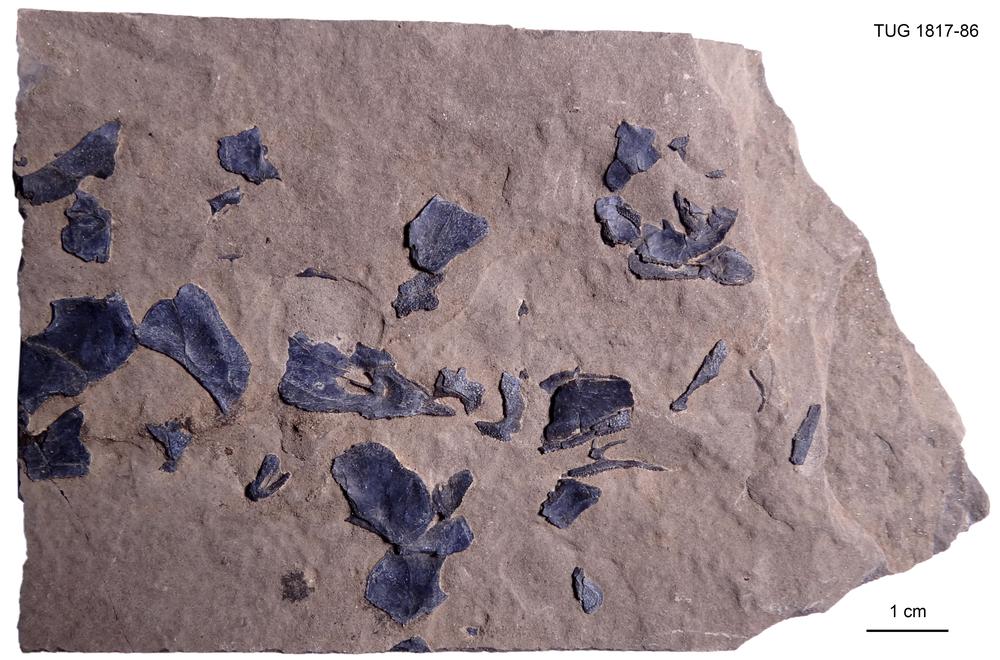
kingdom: Animalia
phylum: Chordata
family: Coccosteidae
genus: Millerosteus
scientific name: Millerosteus minor
